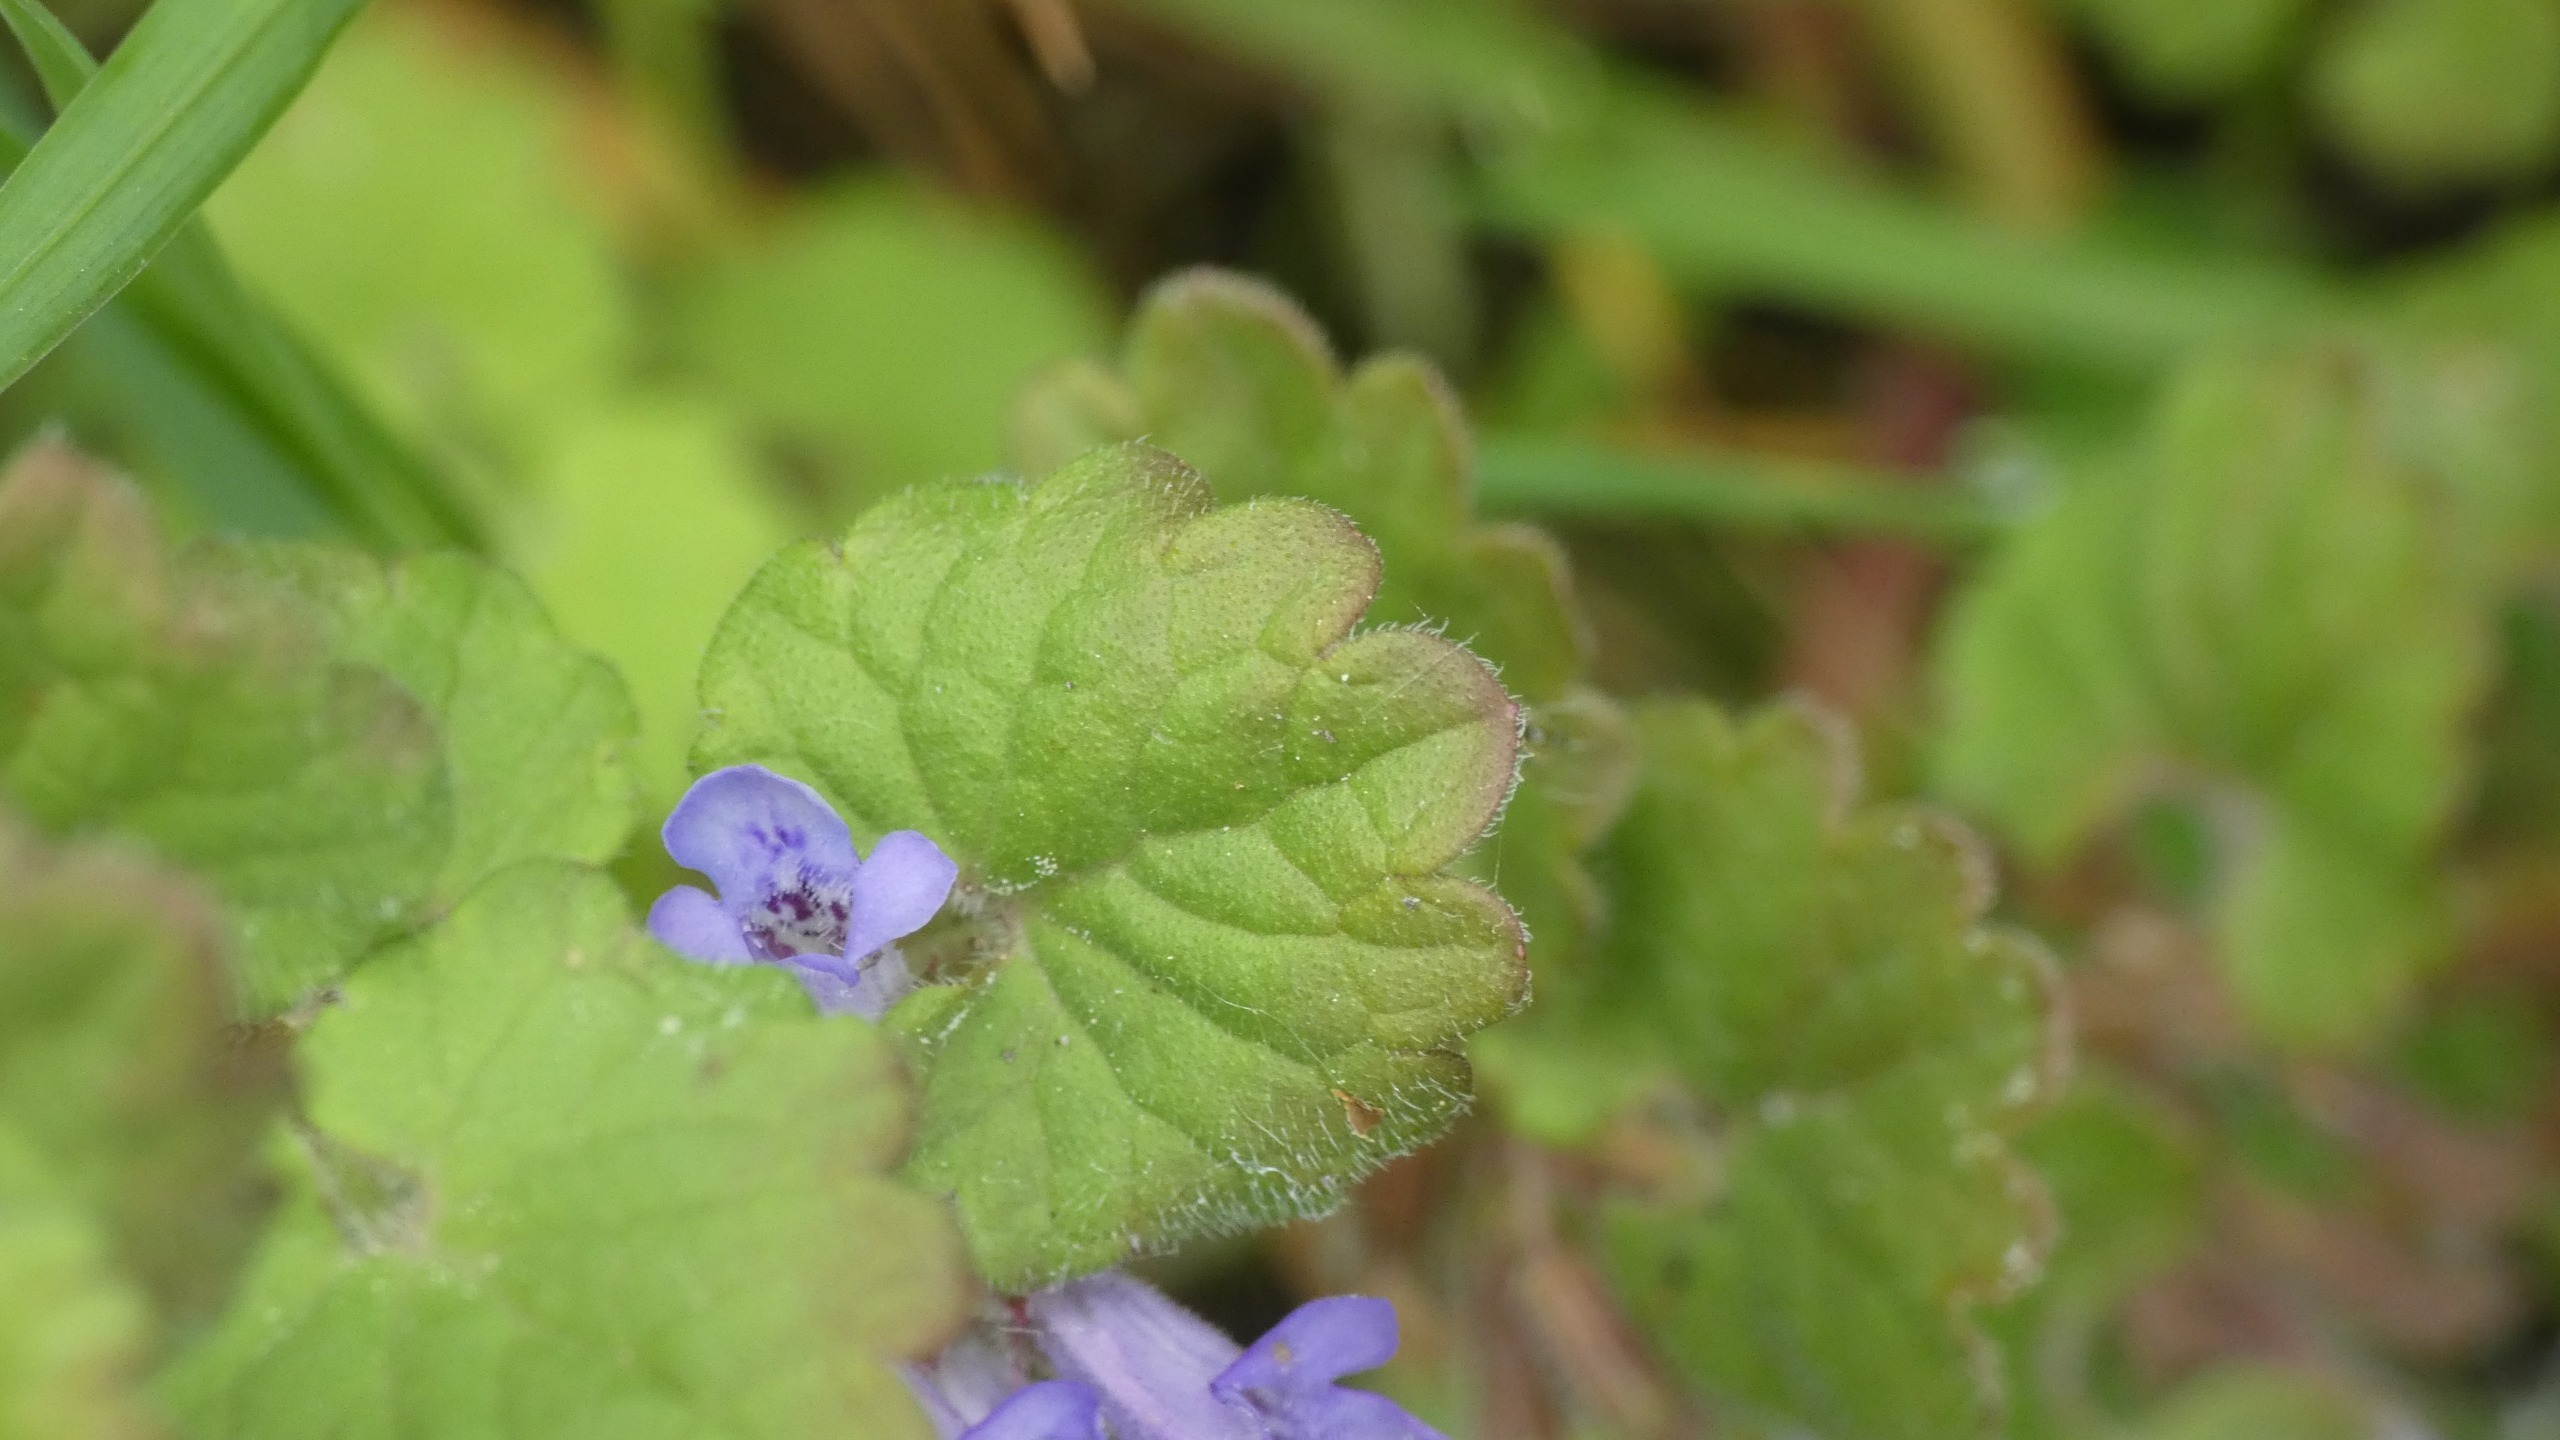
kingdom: Plantae
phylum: Tracheophyta
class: Magnoliopsida
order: Lamiales
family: Lamiaceae
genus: Glechoma
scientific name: Glechoma hederacea
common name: Korsknap
